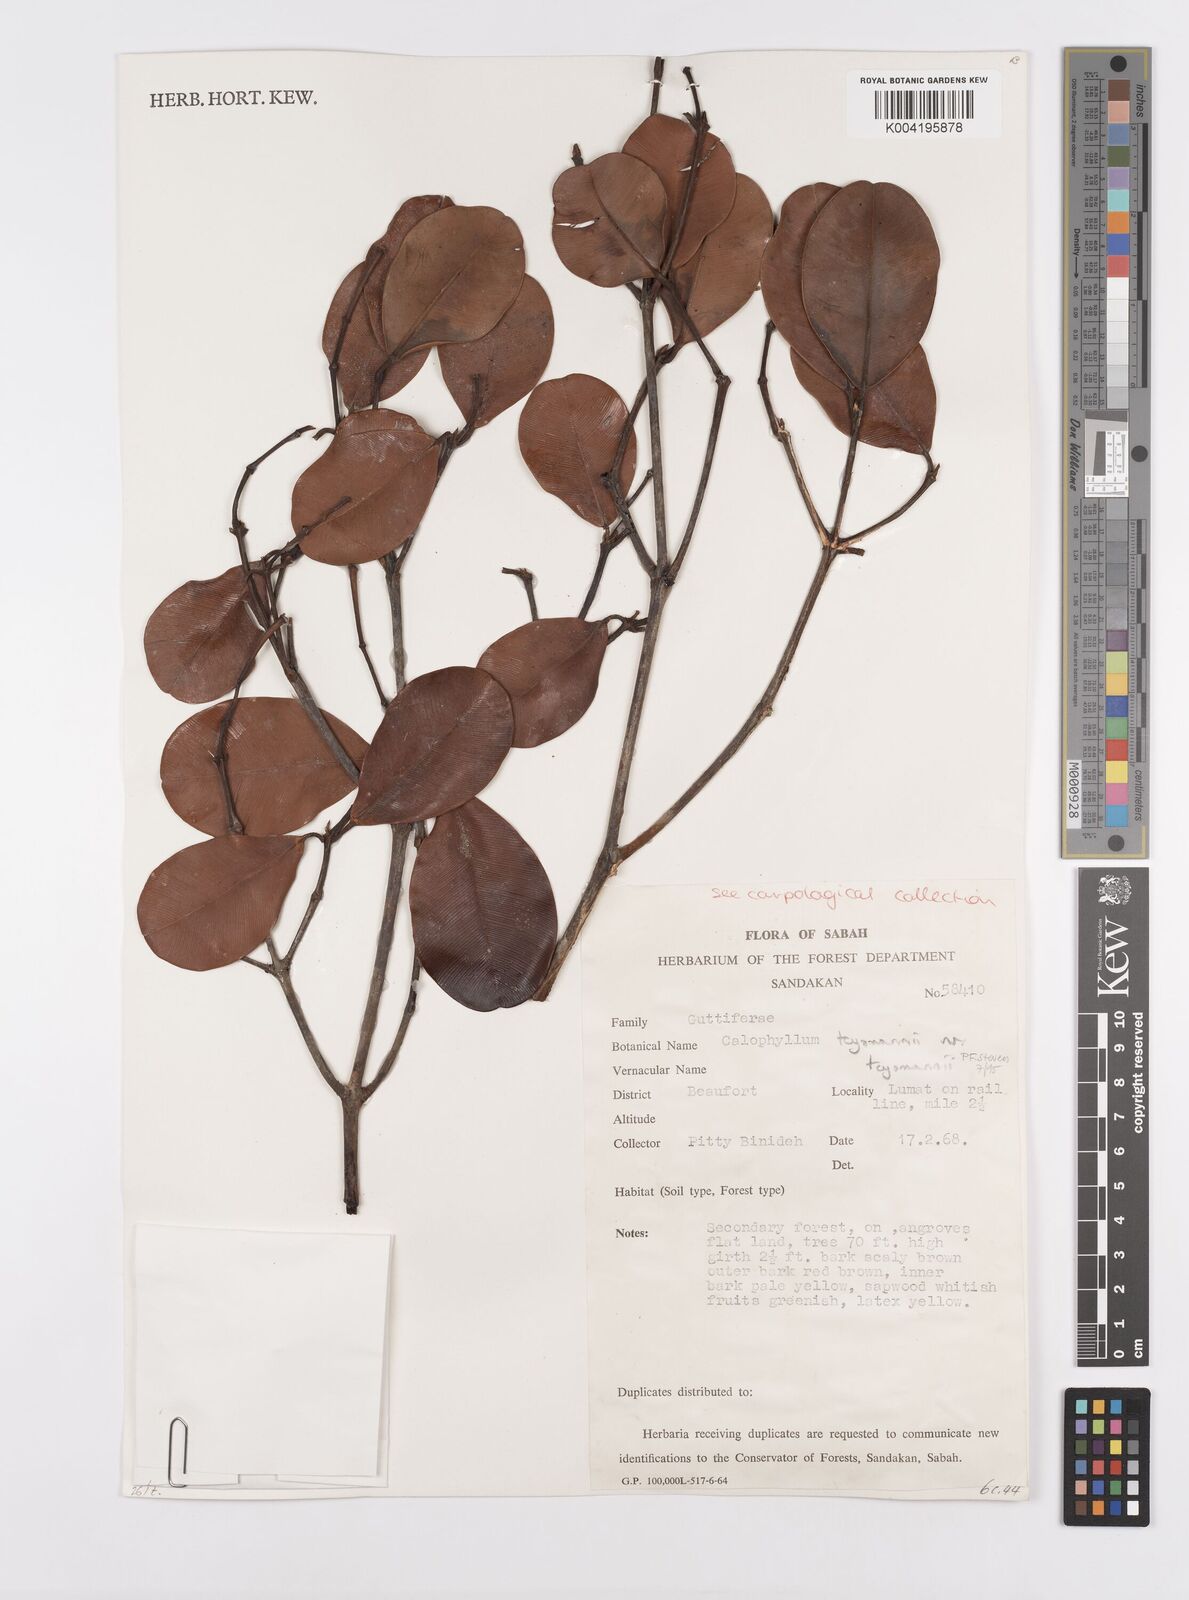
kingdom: Plantae
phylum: Tracheophyta
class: Magnoliopsida
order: Malpighiales
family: Calophyllaceae
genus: Calophyllum
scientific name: Calophyllum teysmannii
